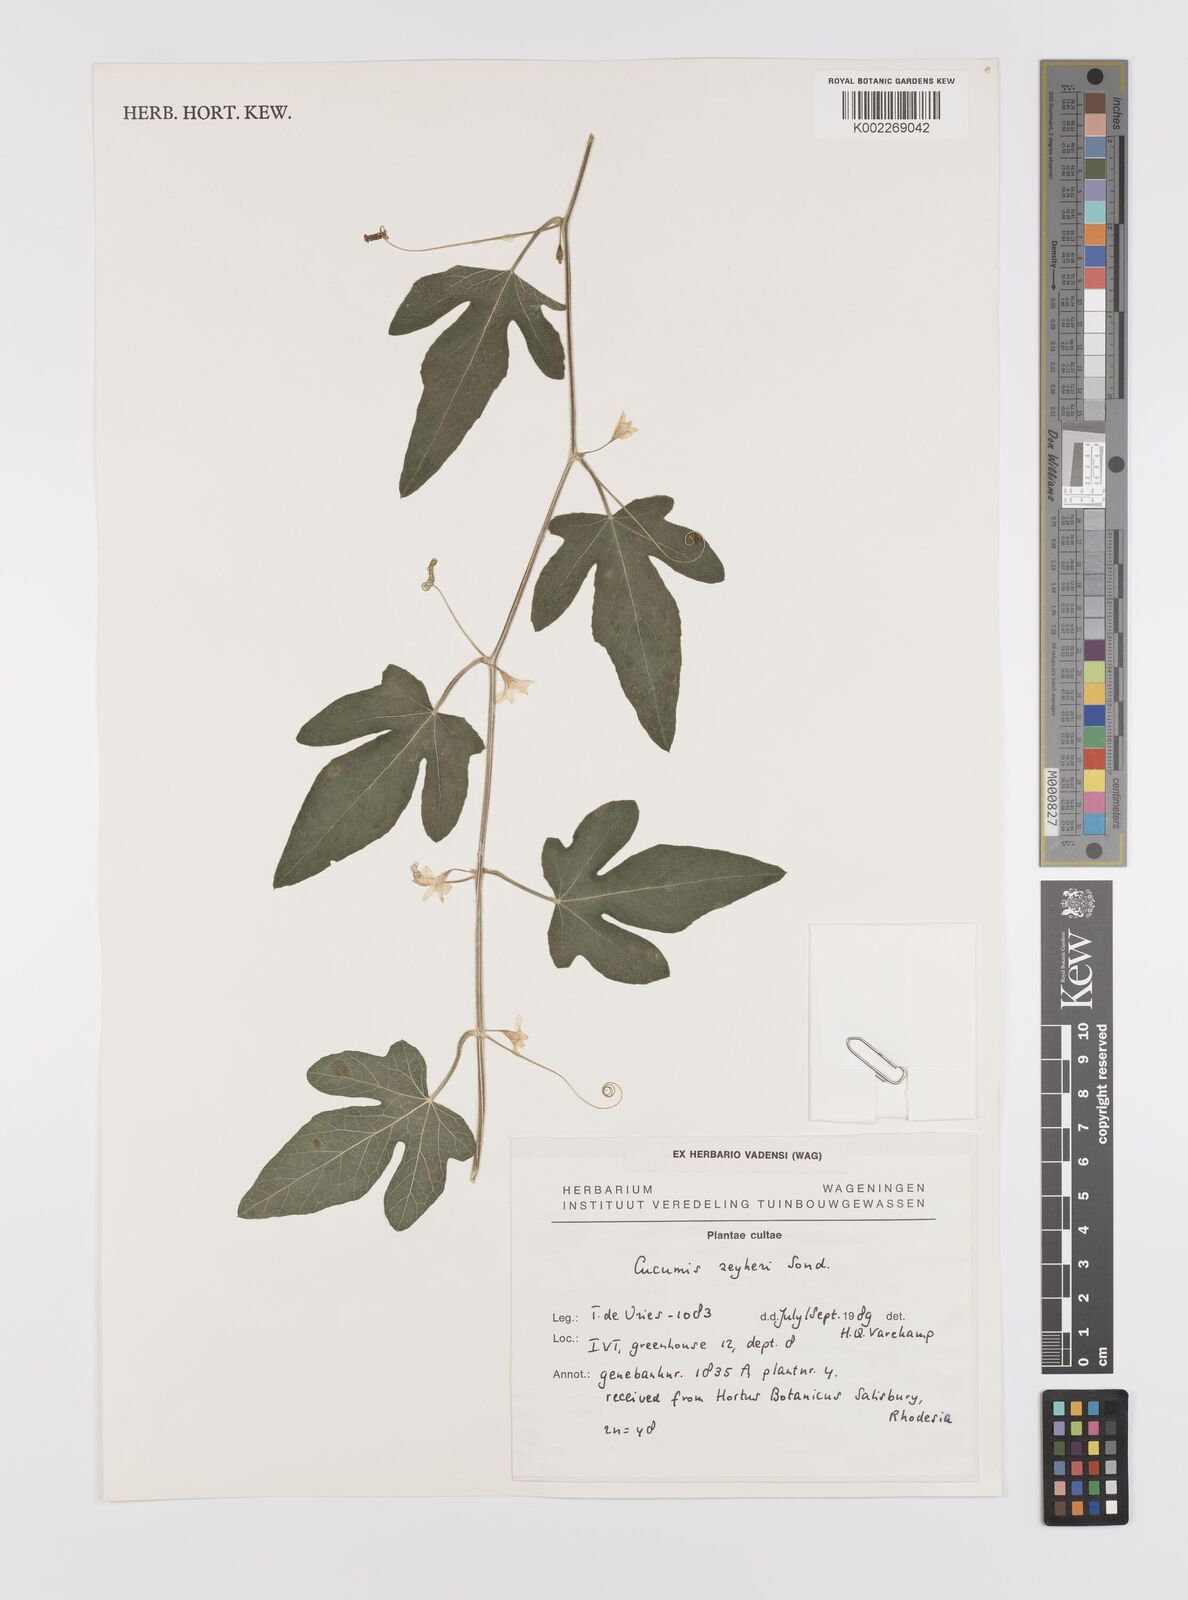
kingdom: Plantae
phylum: Tracheophyta
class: Magnoliopsida
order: Cucurbitales
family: Cucurbitaceae
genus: Cucumis
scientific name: Cucumis sativus
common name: Cucumber
